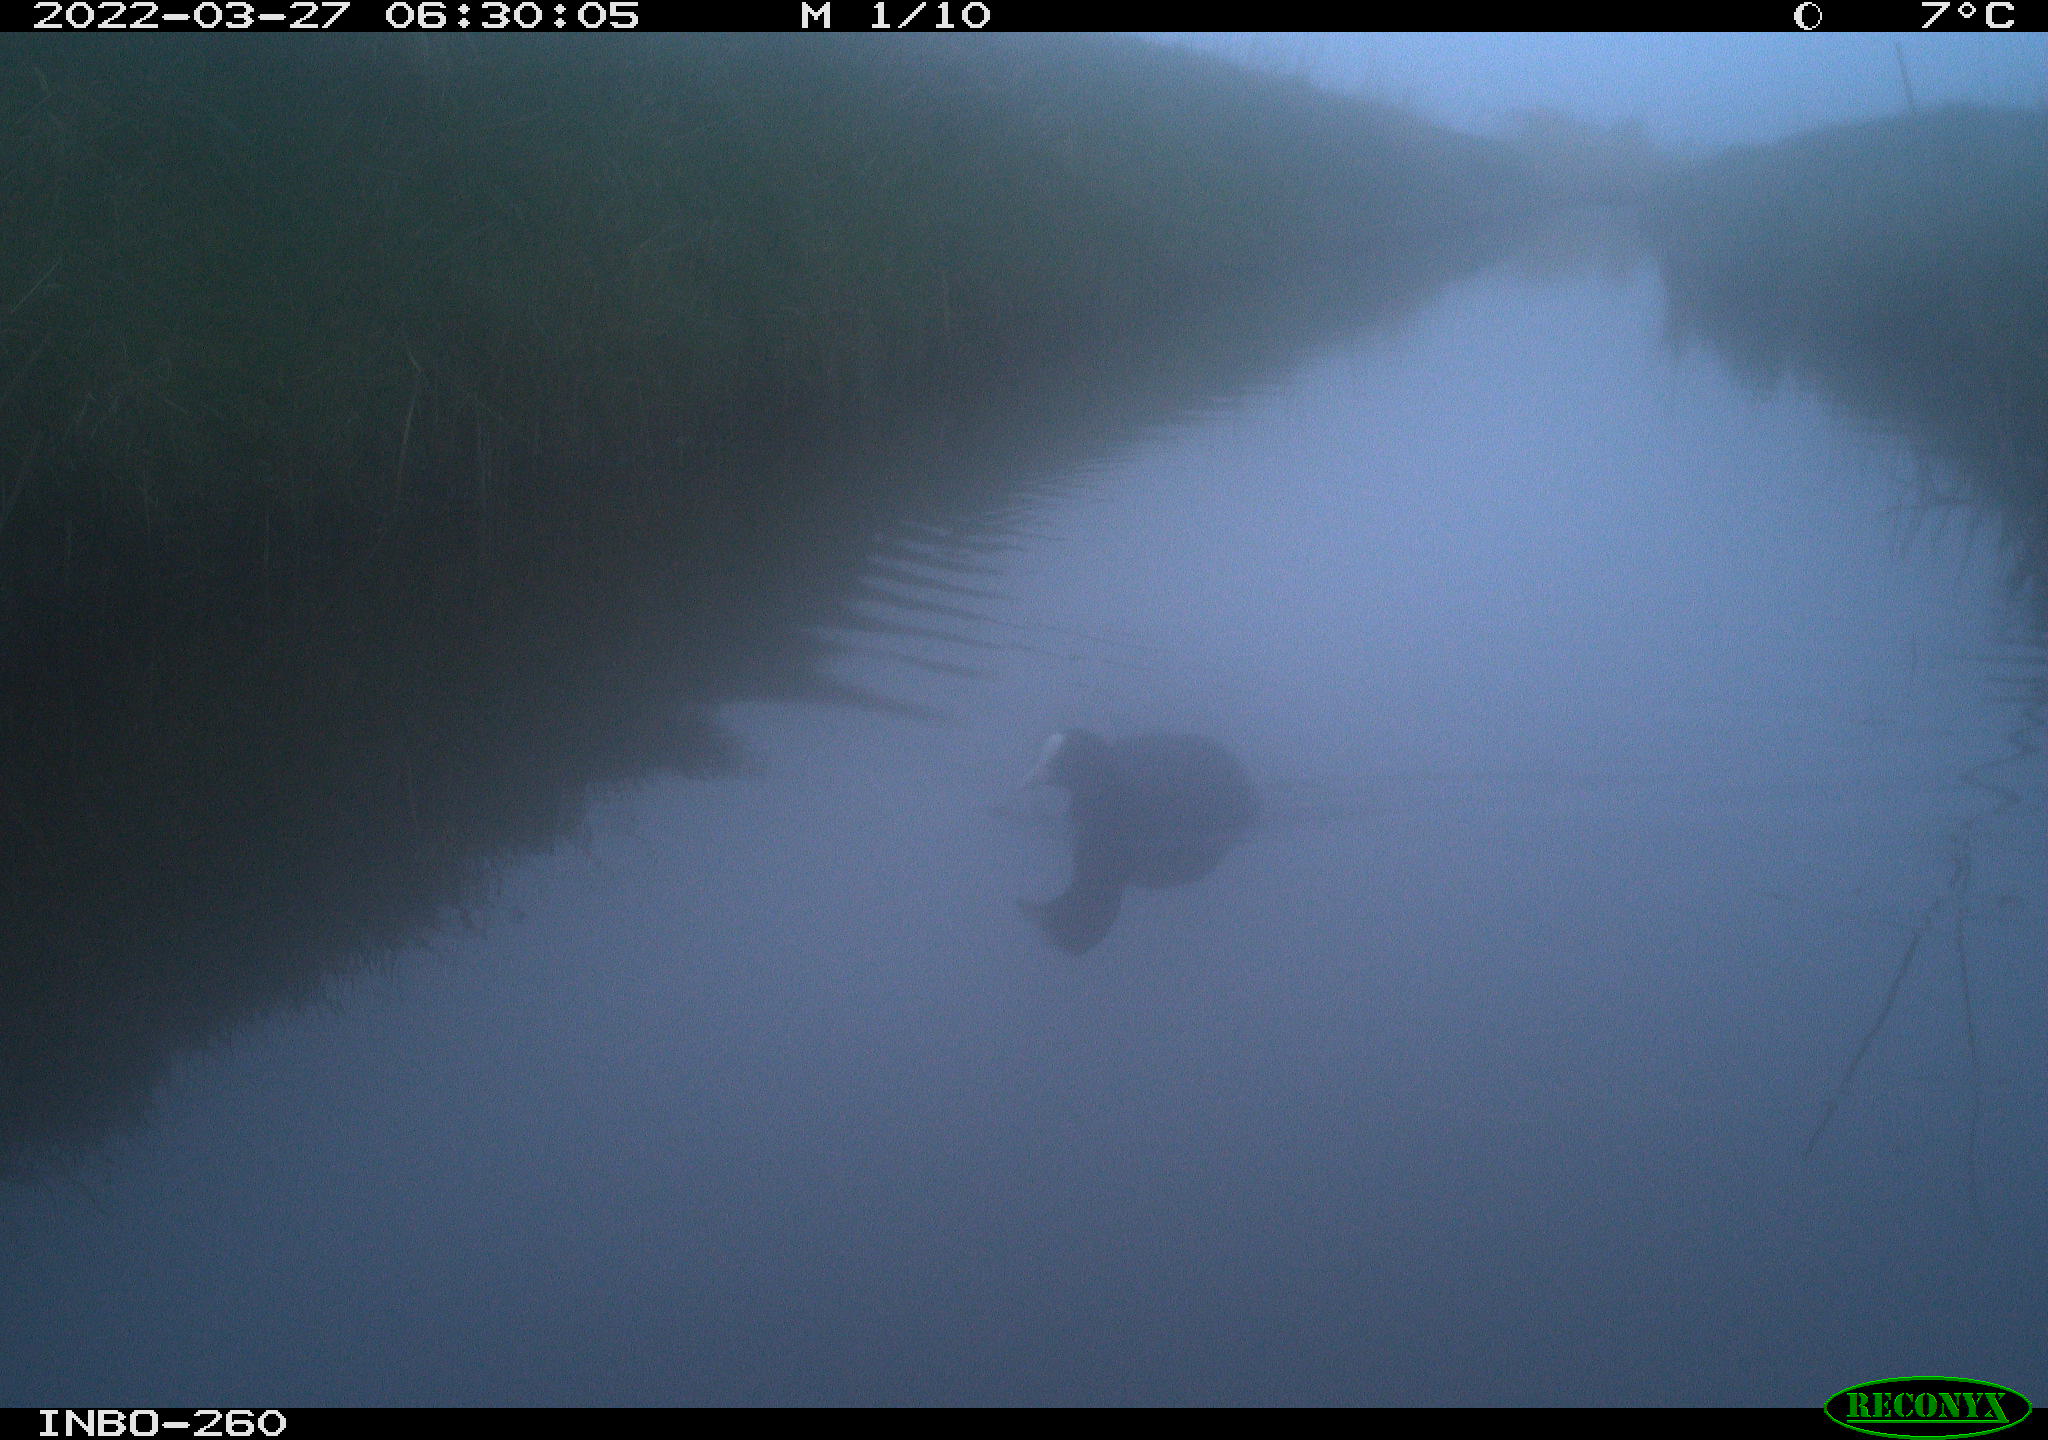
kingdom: Animalia
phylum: Chordata
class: Aves
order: Gruiformes
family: Rallidae
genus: Fulica
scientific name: Fulica atra
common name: Eurasian coot
